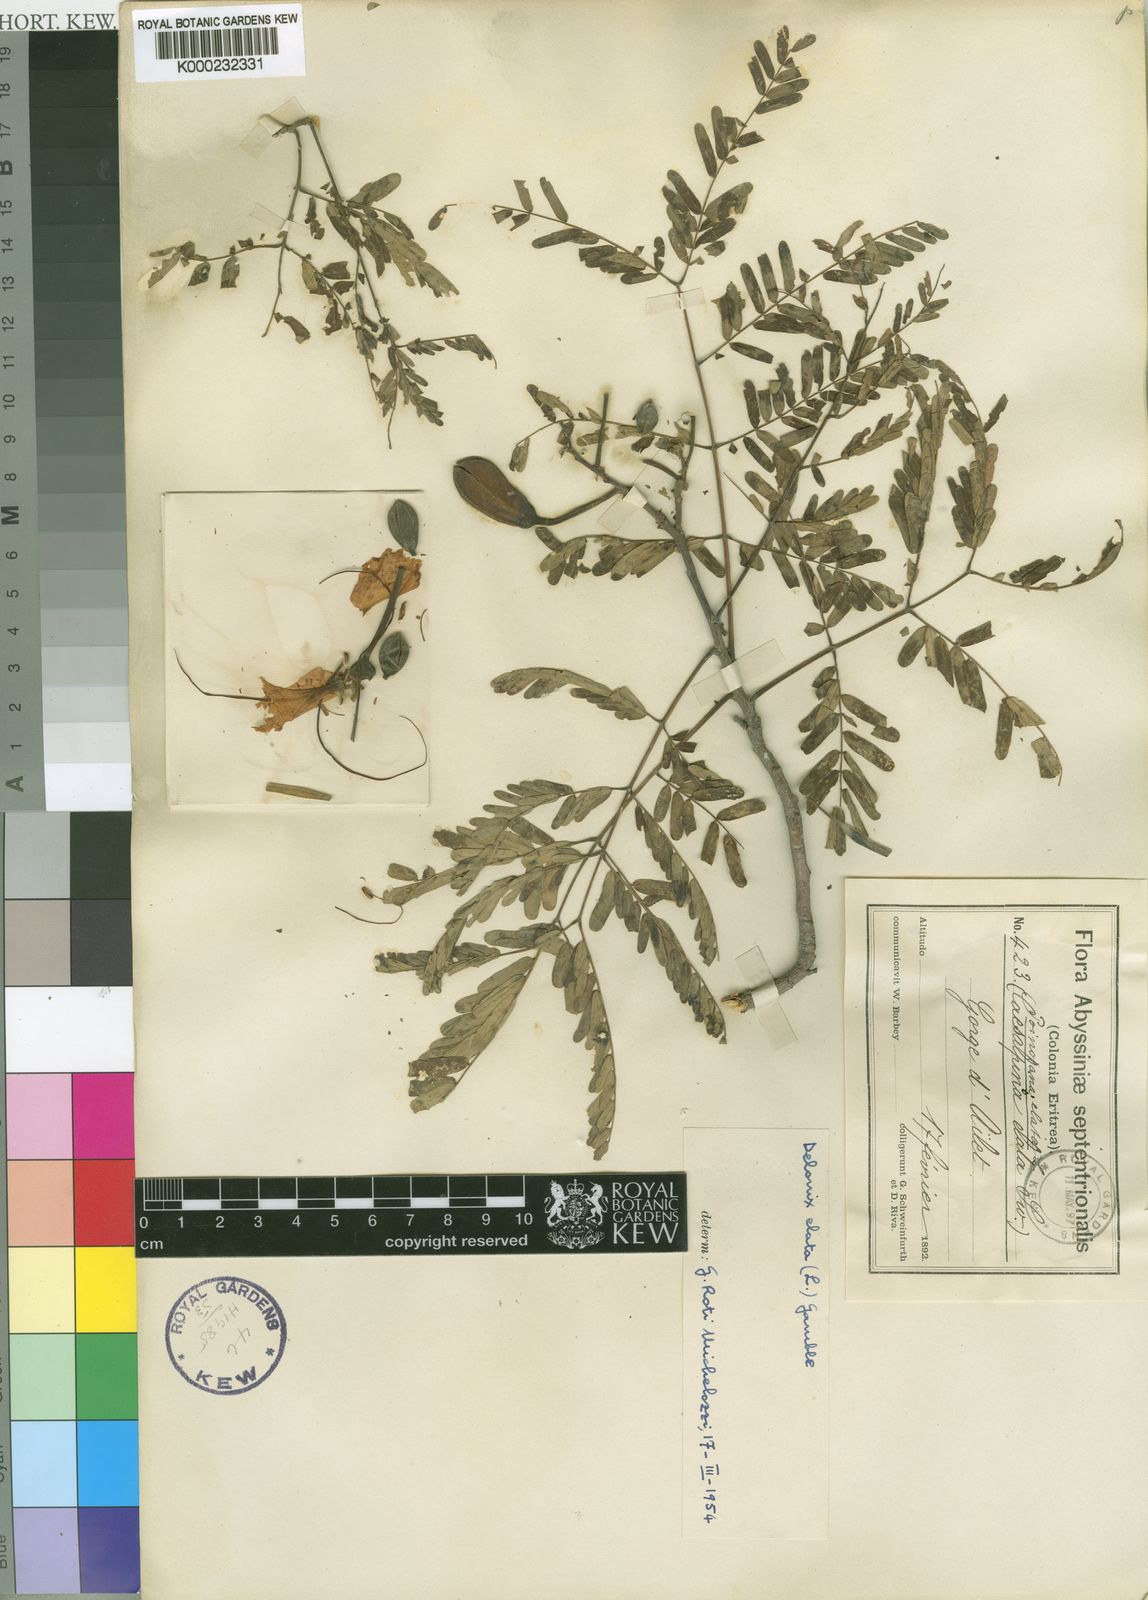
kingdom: Plantae
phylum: Tracheophyta
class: Magnoliopsida
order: Fabales
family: Fabaceae
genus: Delonix
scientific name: Delonix elata
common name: Creamy peacock flower
